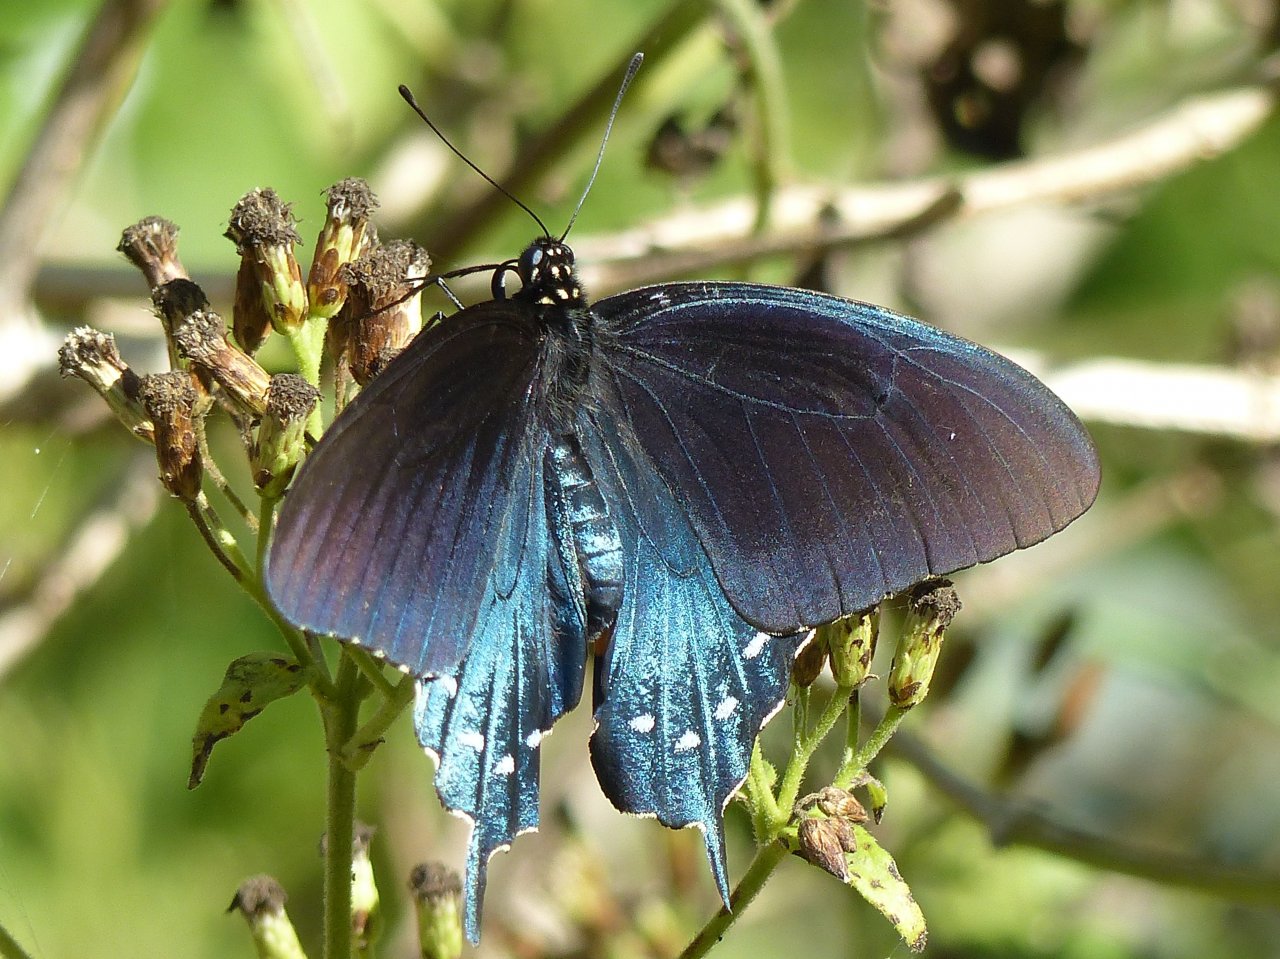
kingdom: Animalia
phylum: Arthropoda
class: Insecta
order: Lepidoptera
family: Papilionidae
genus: Battus
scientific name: Battus philenor
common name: Pipevine Swallowtail
